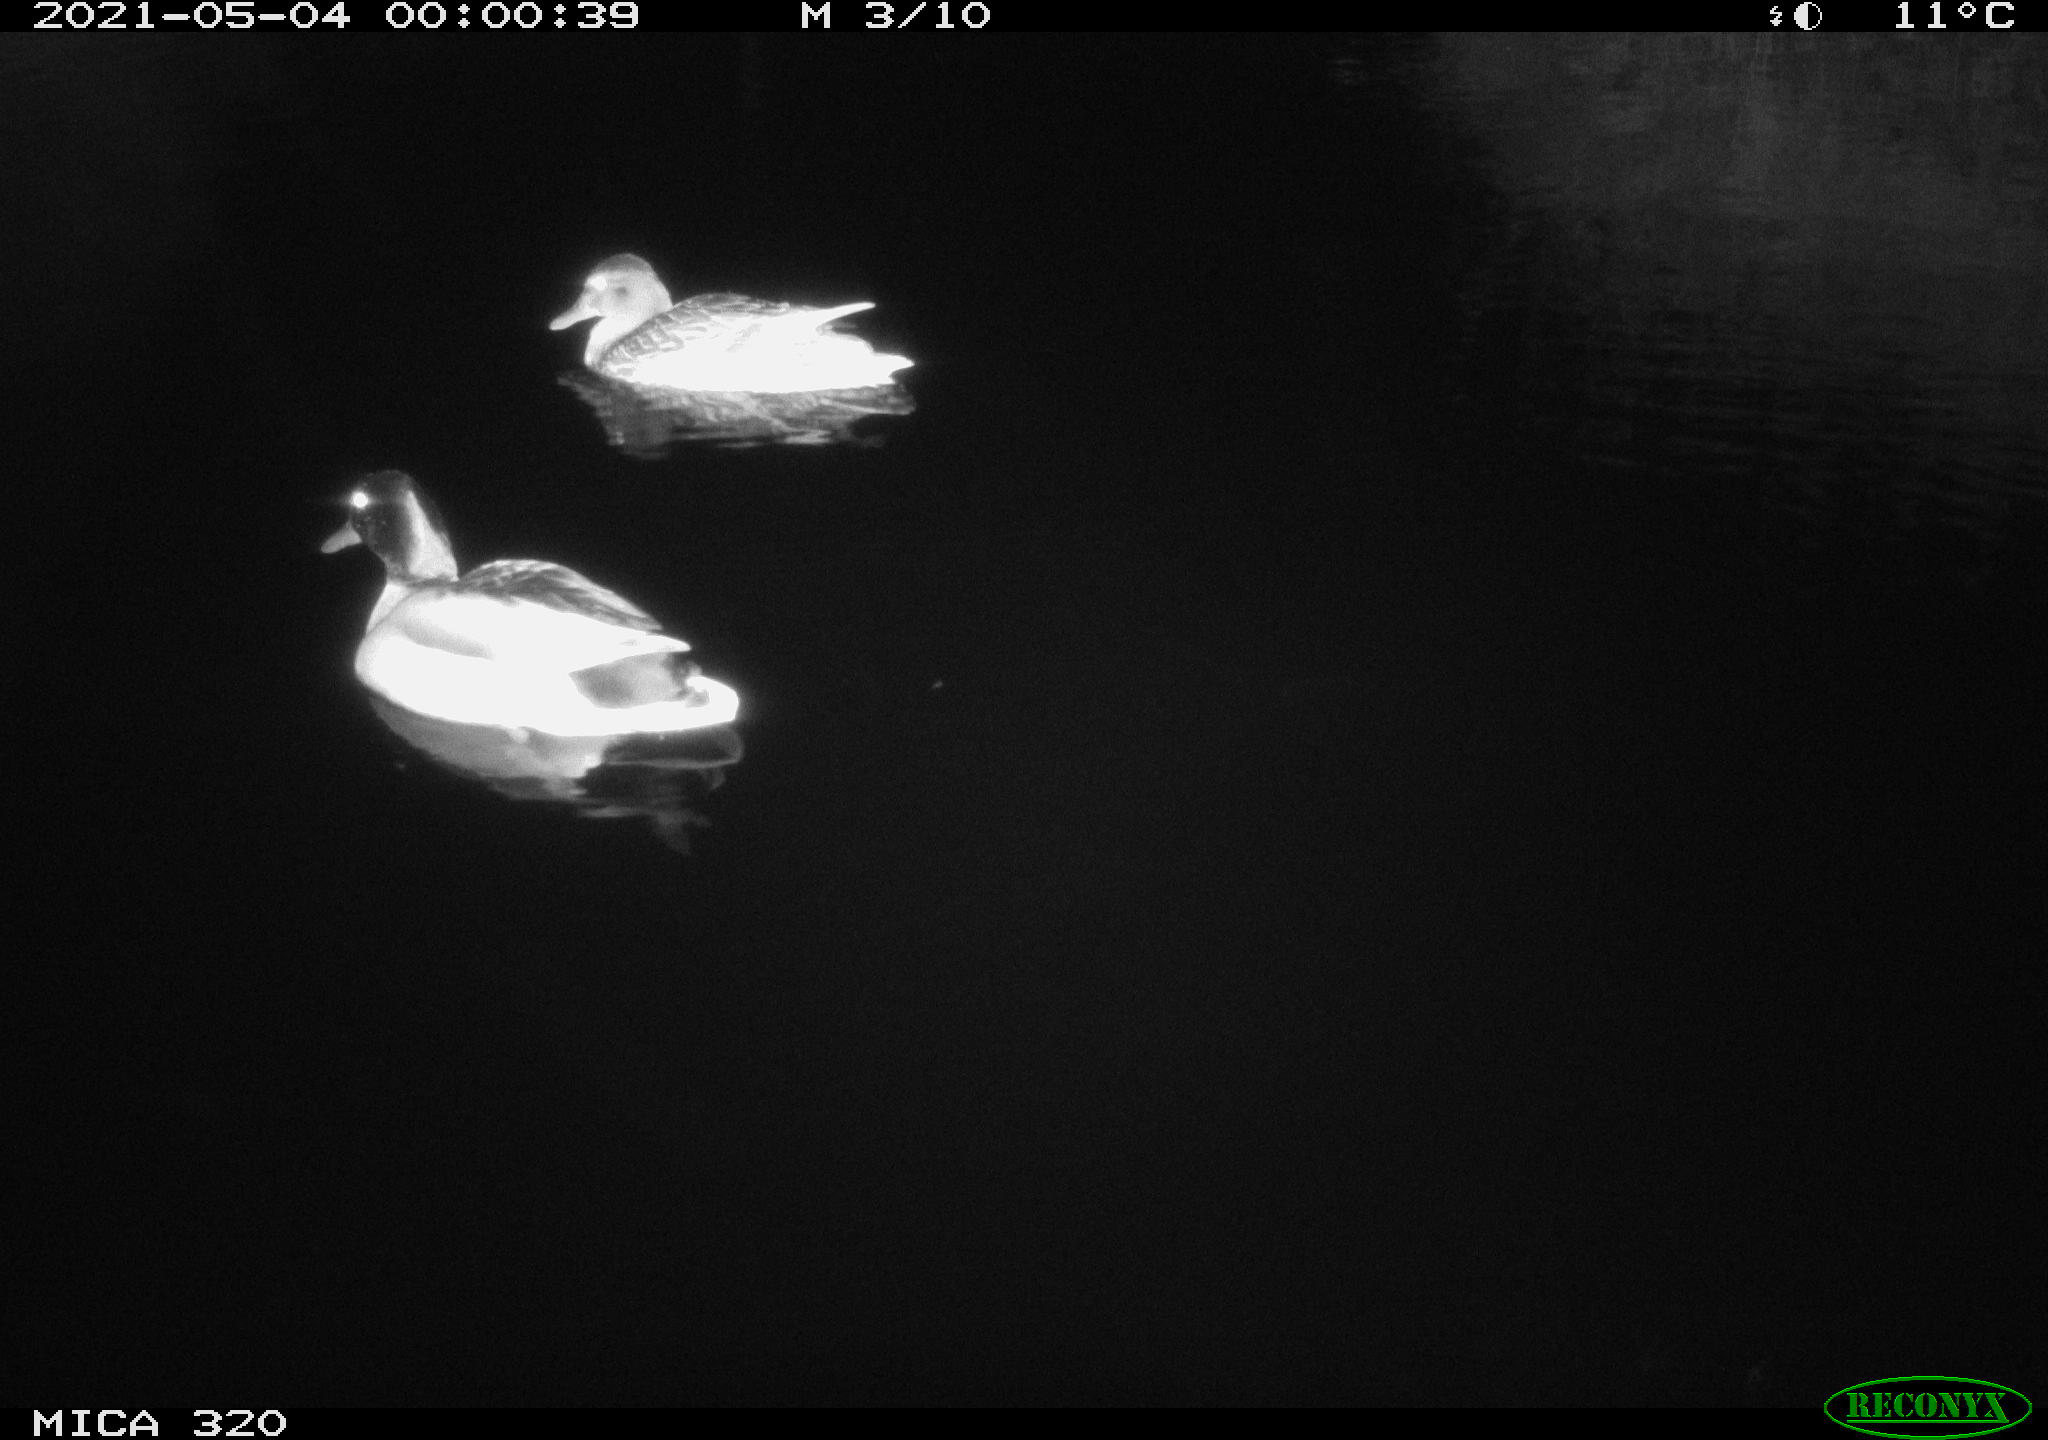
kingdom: Animalia
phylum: Chordata
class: Aves
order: Anseriformes
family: Anatidae
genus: Anas
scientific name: Anas platyrhynchos
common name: Mallard
